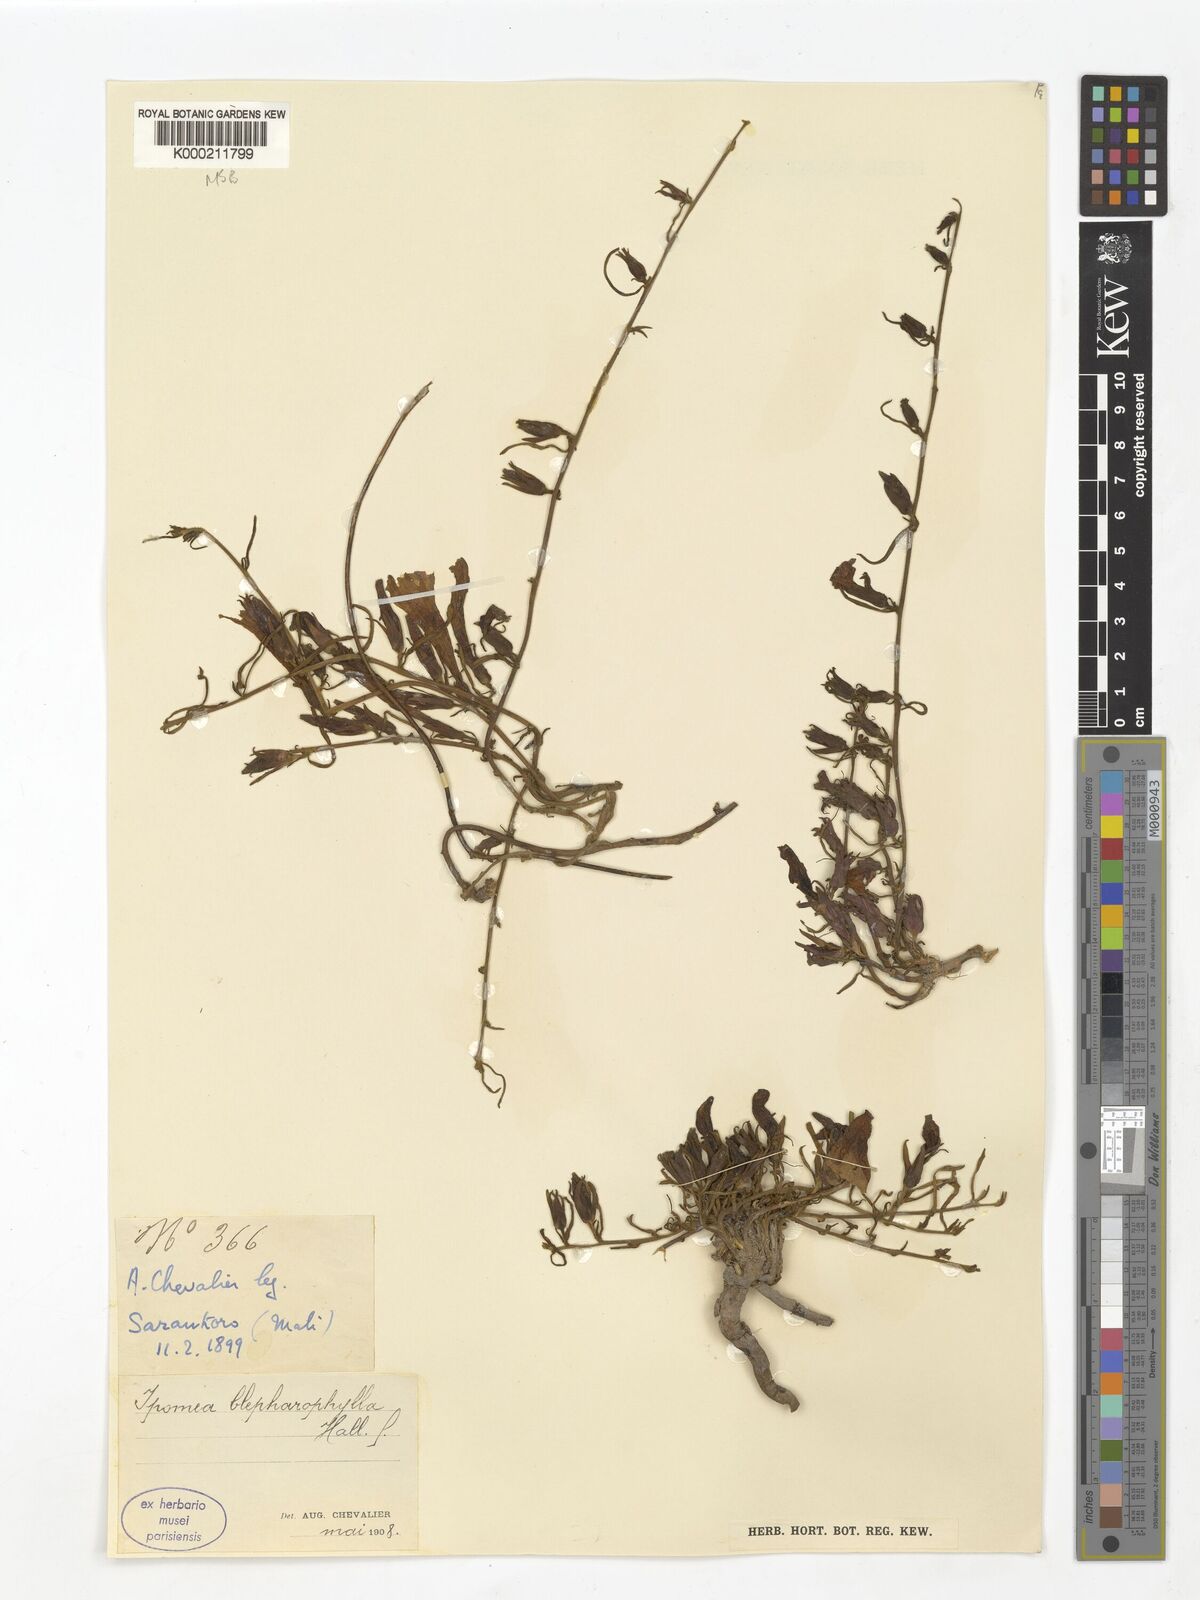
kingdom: Plantae
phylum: Tracheophyta
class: Magnoliopsida
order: Solanales
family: Convolvulaceae
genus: Ipomoea
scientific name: Ipomoea blepharophylla
